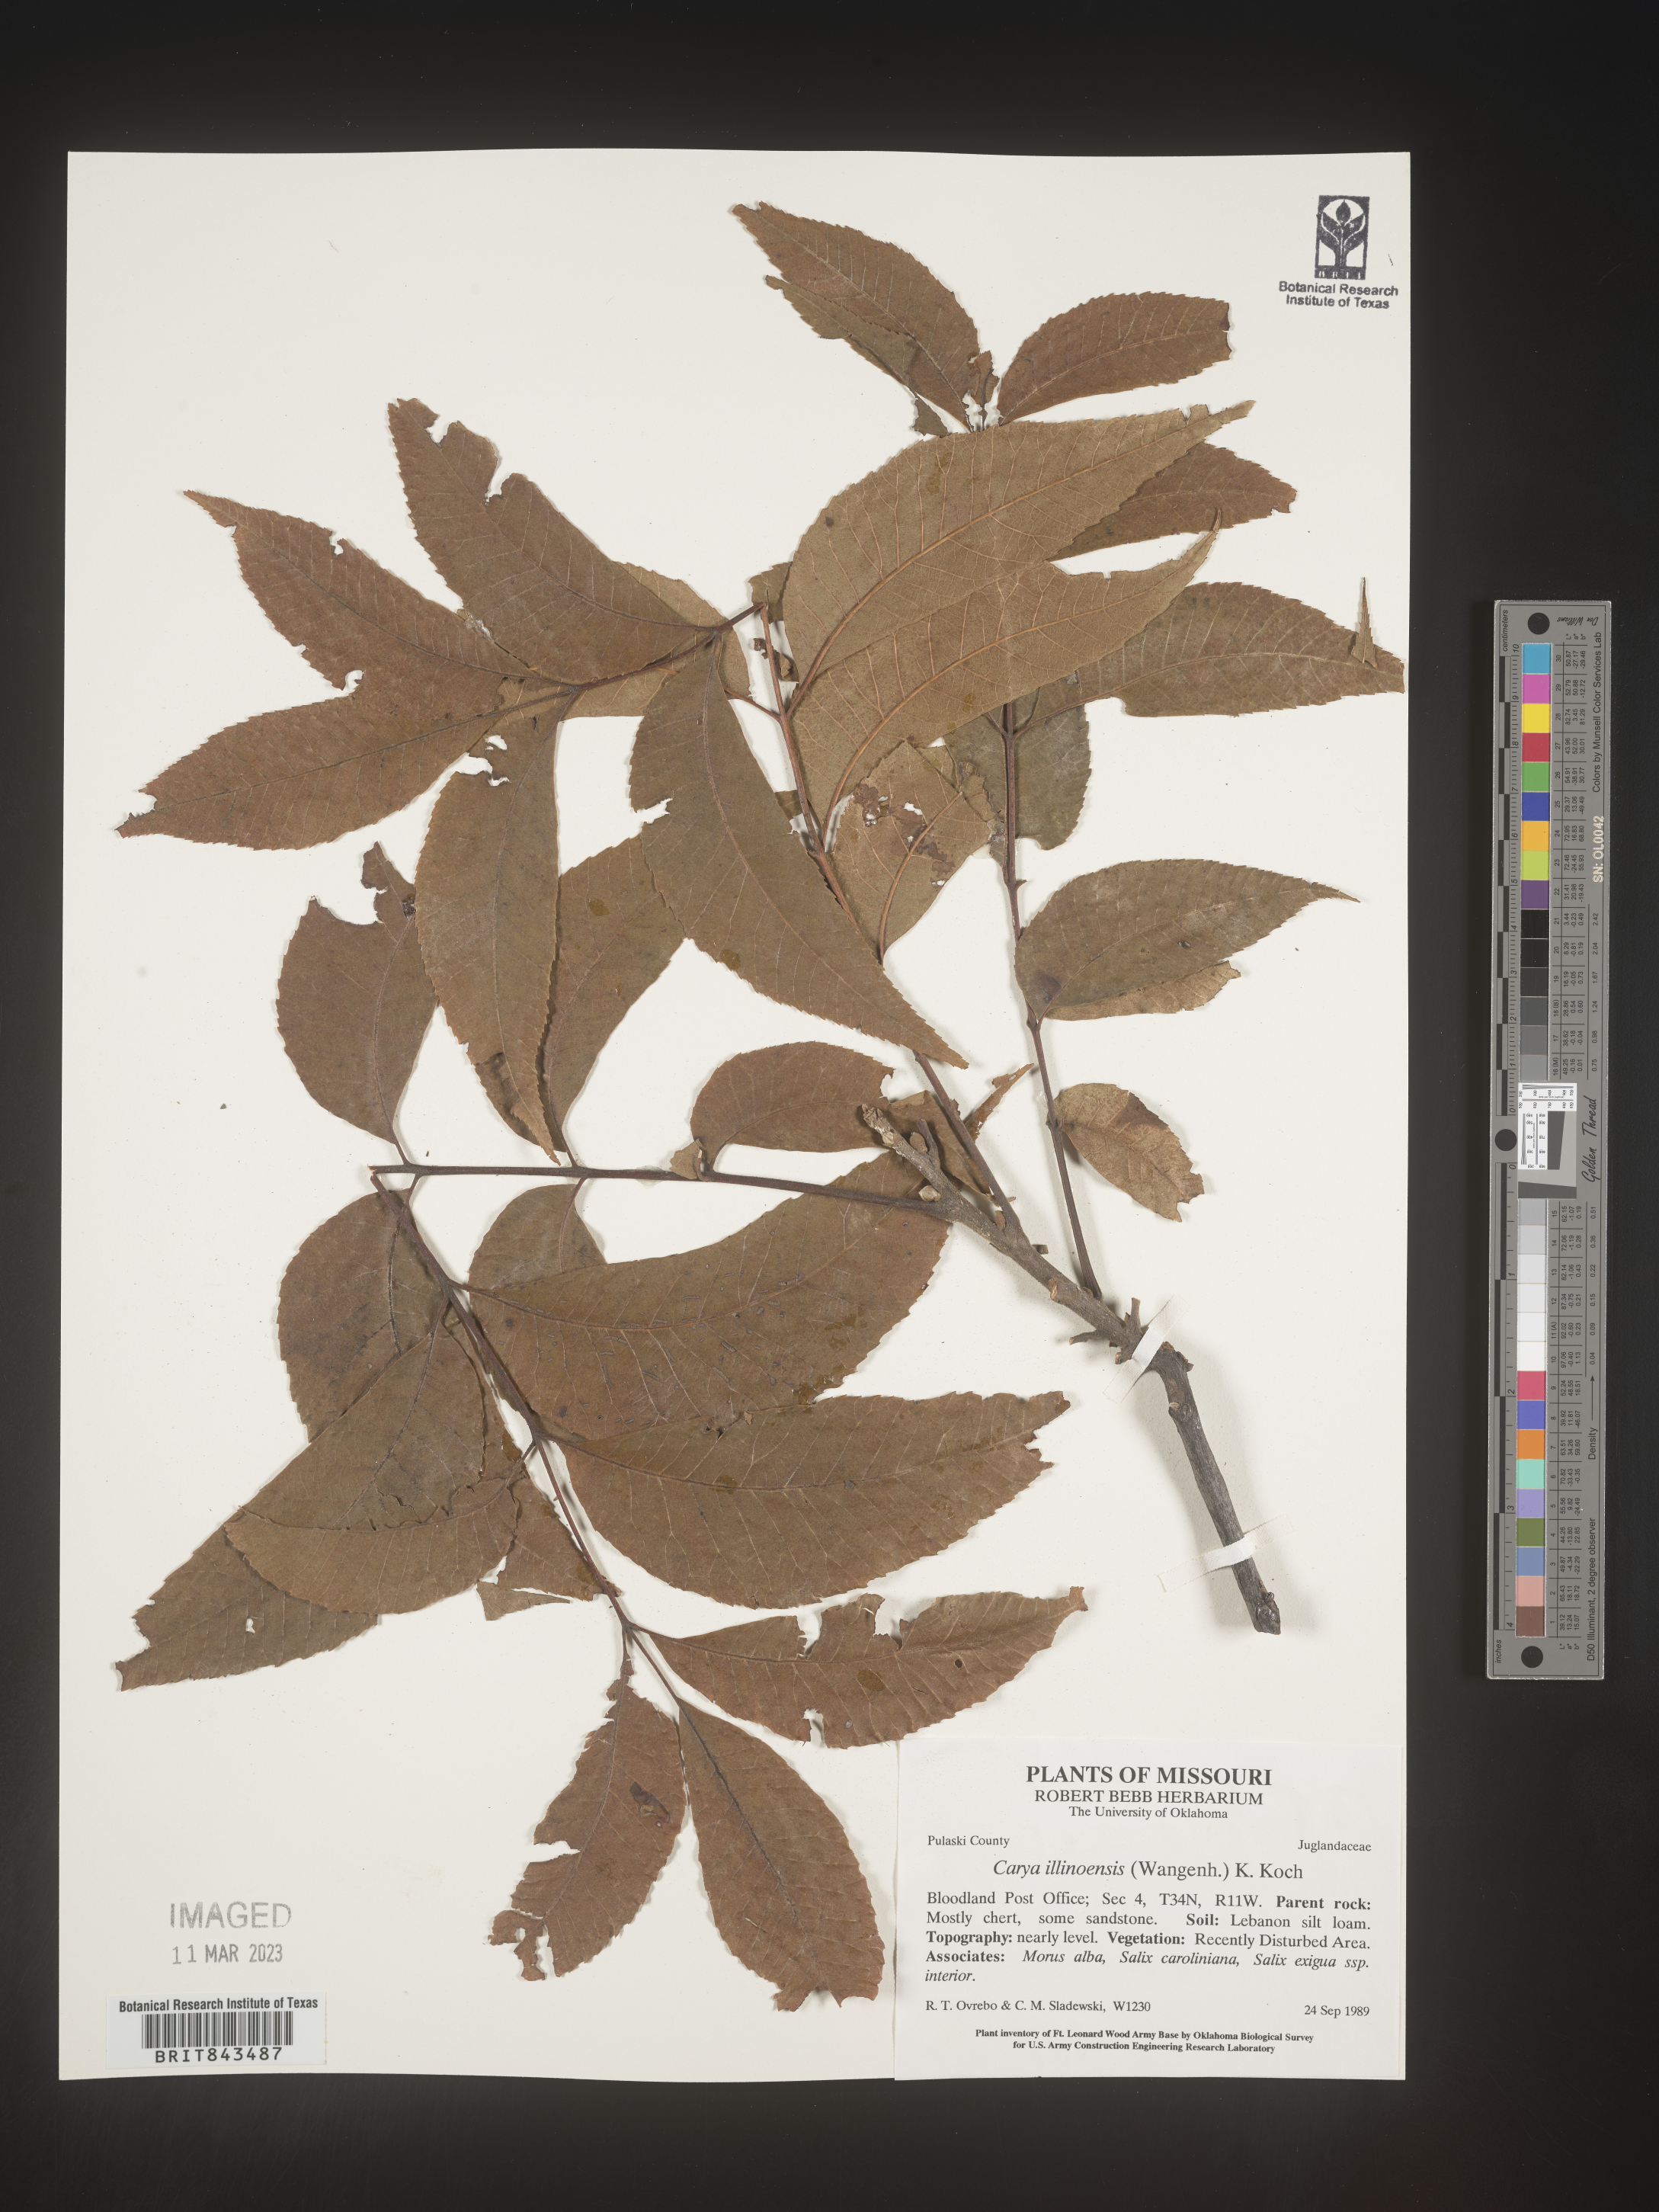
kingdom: Plantae
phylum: Tracheophyta
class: Magnoliopsida
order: Fagales
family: Juglandaceae
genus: Carya
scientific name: Carya illinoinensis
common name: Pecan
